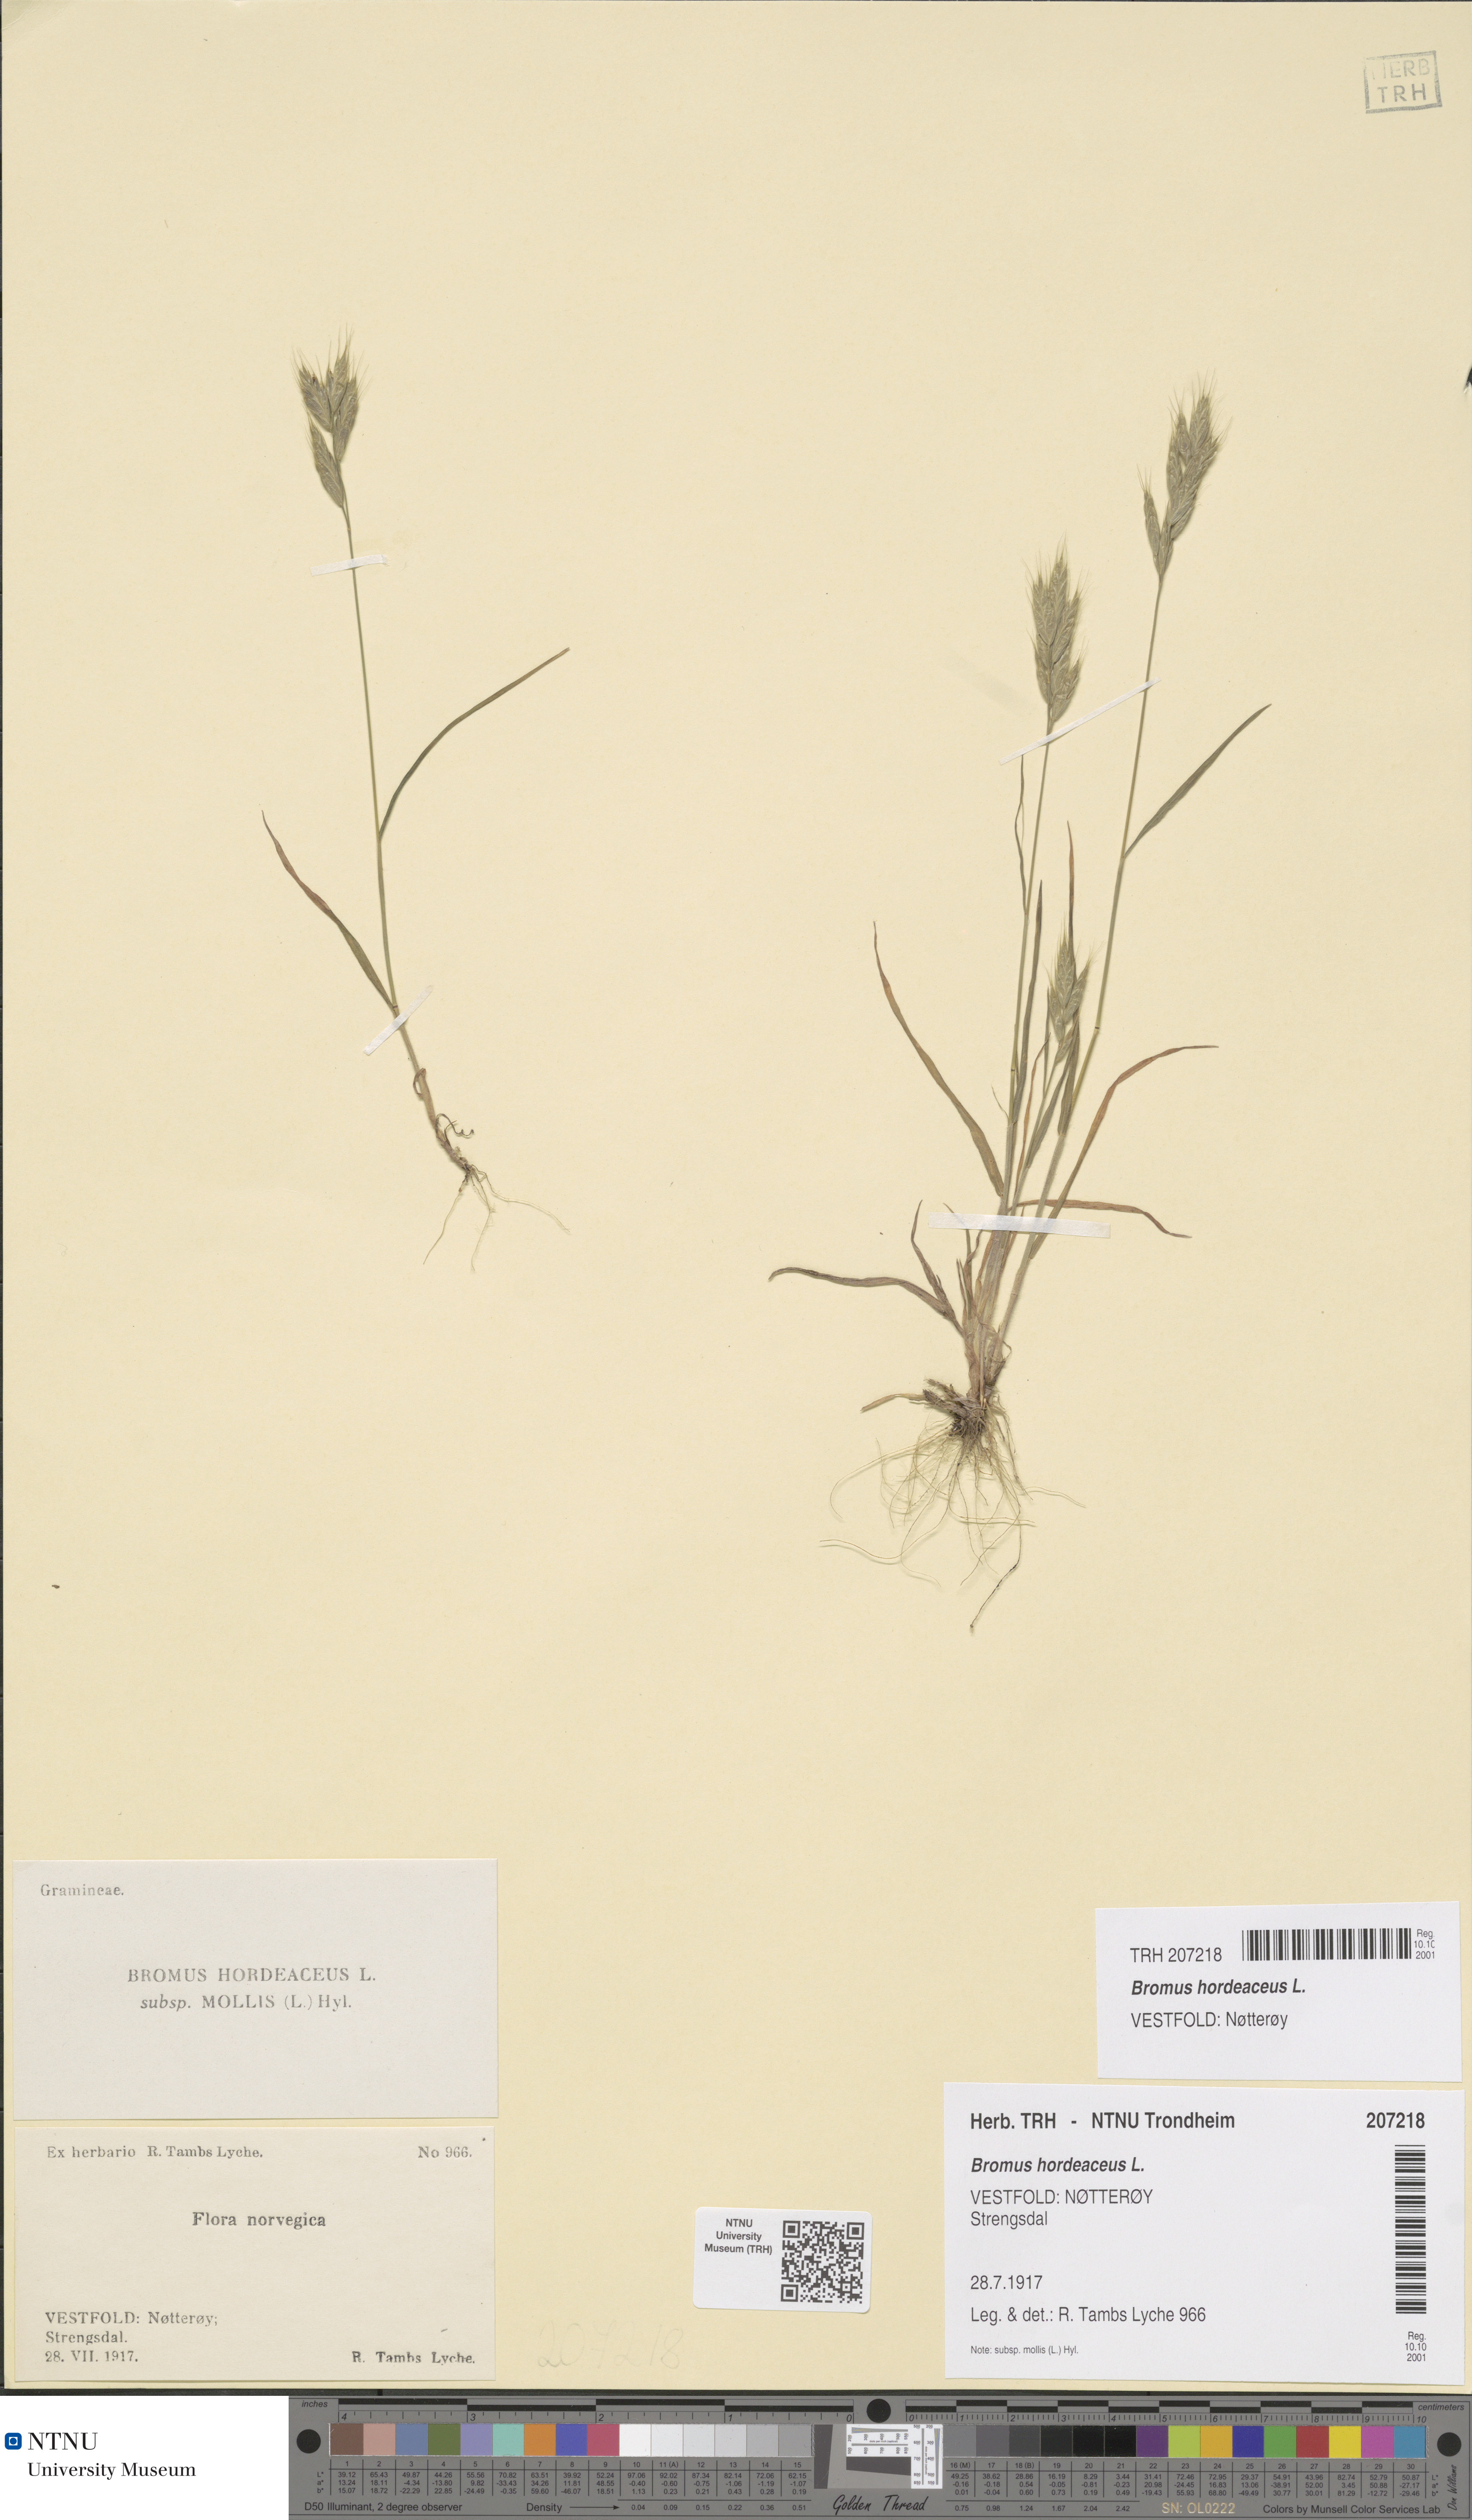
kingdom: Plantae
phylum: Tracheophyta
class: Liliopsida
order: Poales
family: Poaceae
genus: Bromus
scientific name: Bromus hordeaceus
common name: Soft brome
